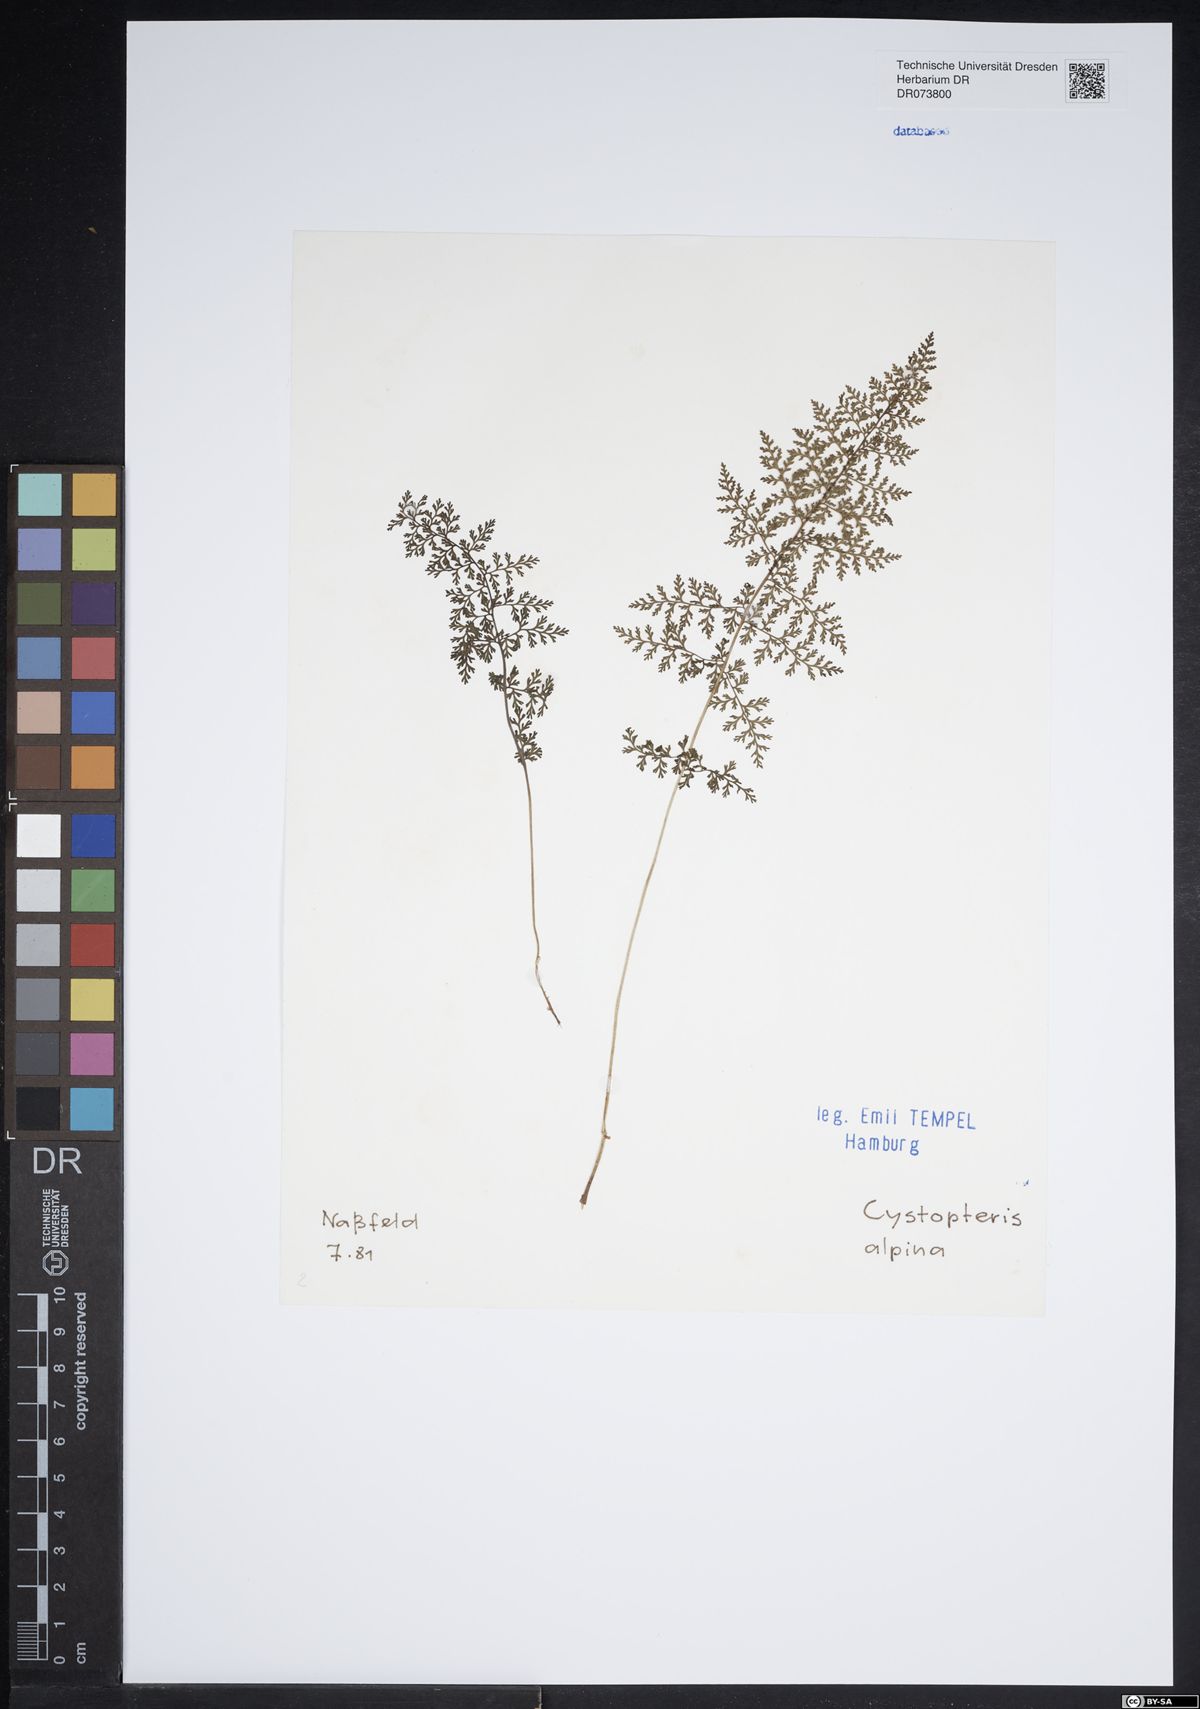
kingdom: Plantae
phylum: Tracheophyta
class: Polypodiopsida
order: Polypodiales
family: Cystopteridaceae
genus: Cystopteris
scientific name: Cystopteris alpina
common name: Alpine bladder-fern
